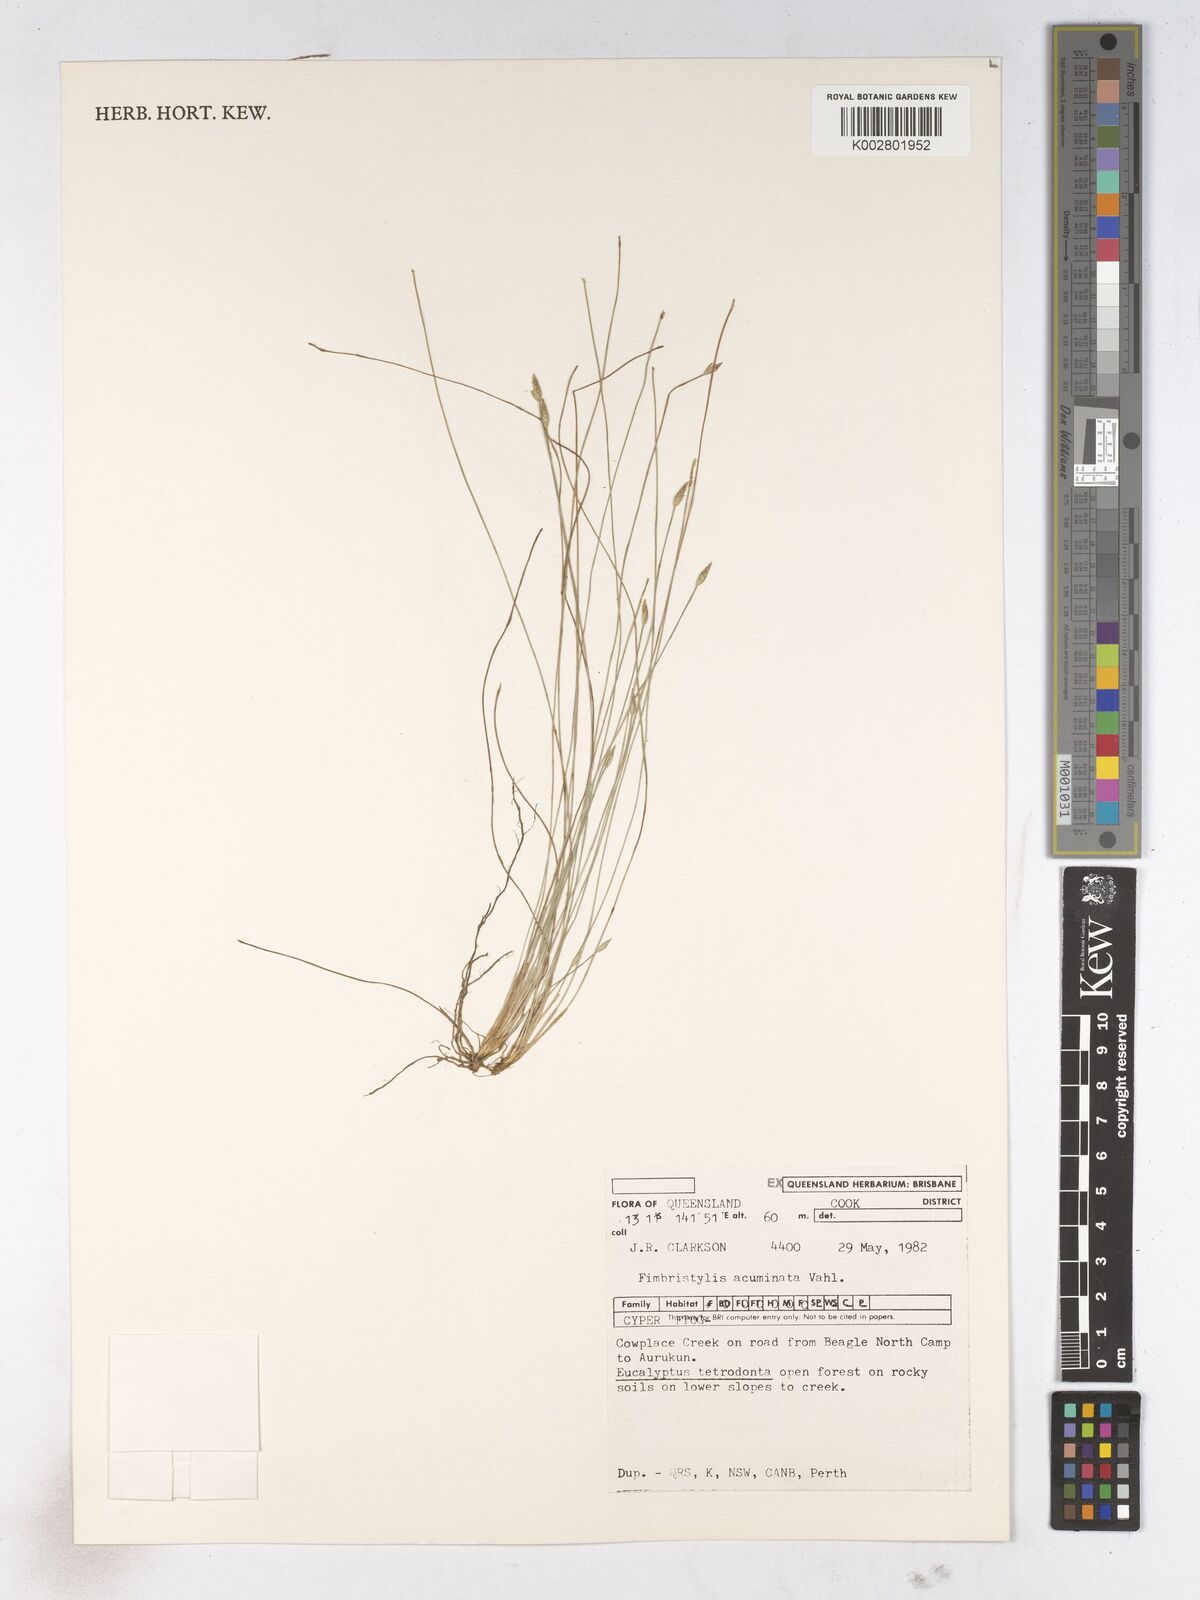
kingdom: Plantae
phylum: Tracheophyta
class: Liliopsida
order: Poales
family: Cyperaceae
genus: Fimbristylis
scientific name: Fimbristylis acuminata
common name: Pointed fimbristylis
